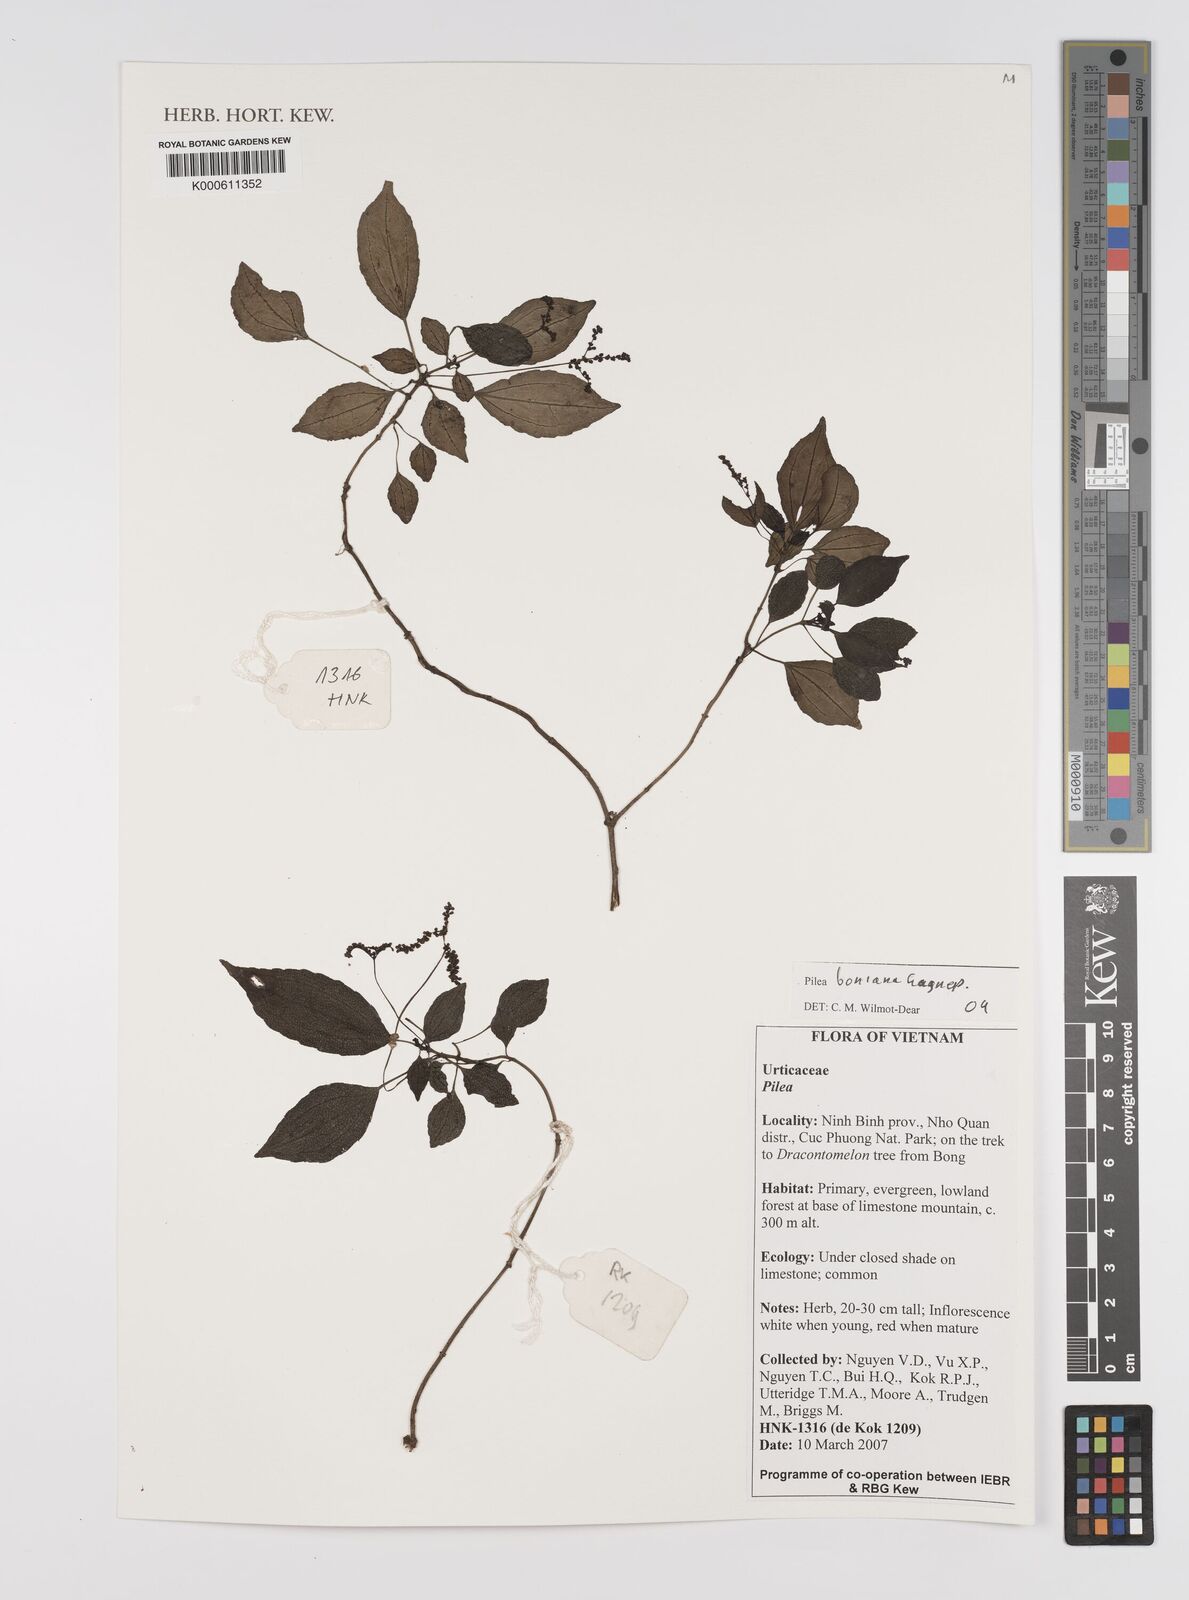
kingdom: Plantae
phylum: Tracheophyta
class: Magnoliopsida
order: Rosales
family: Urticaceae
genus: Pilea
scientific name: Pilea
